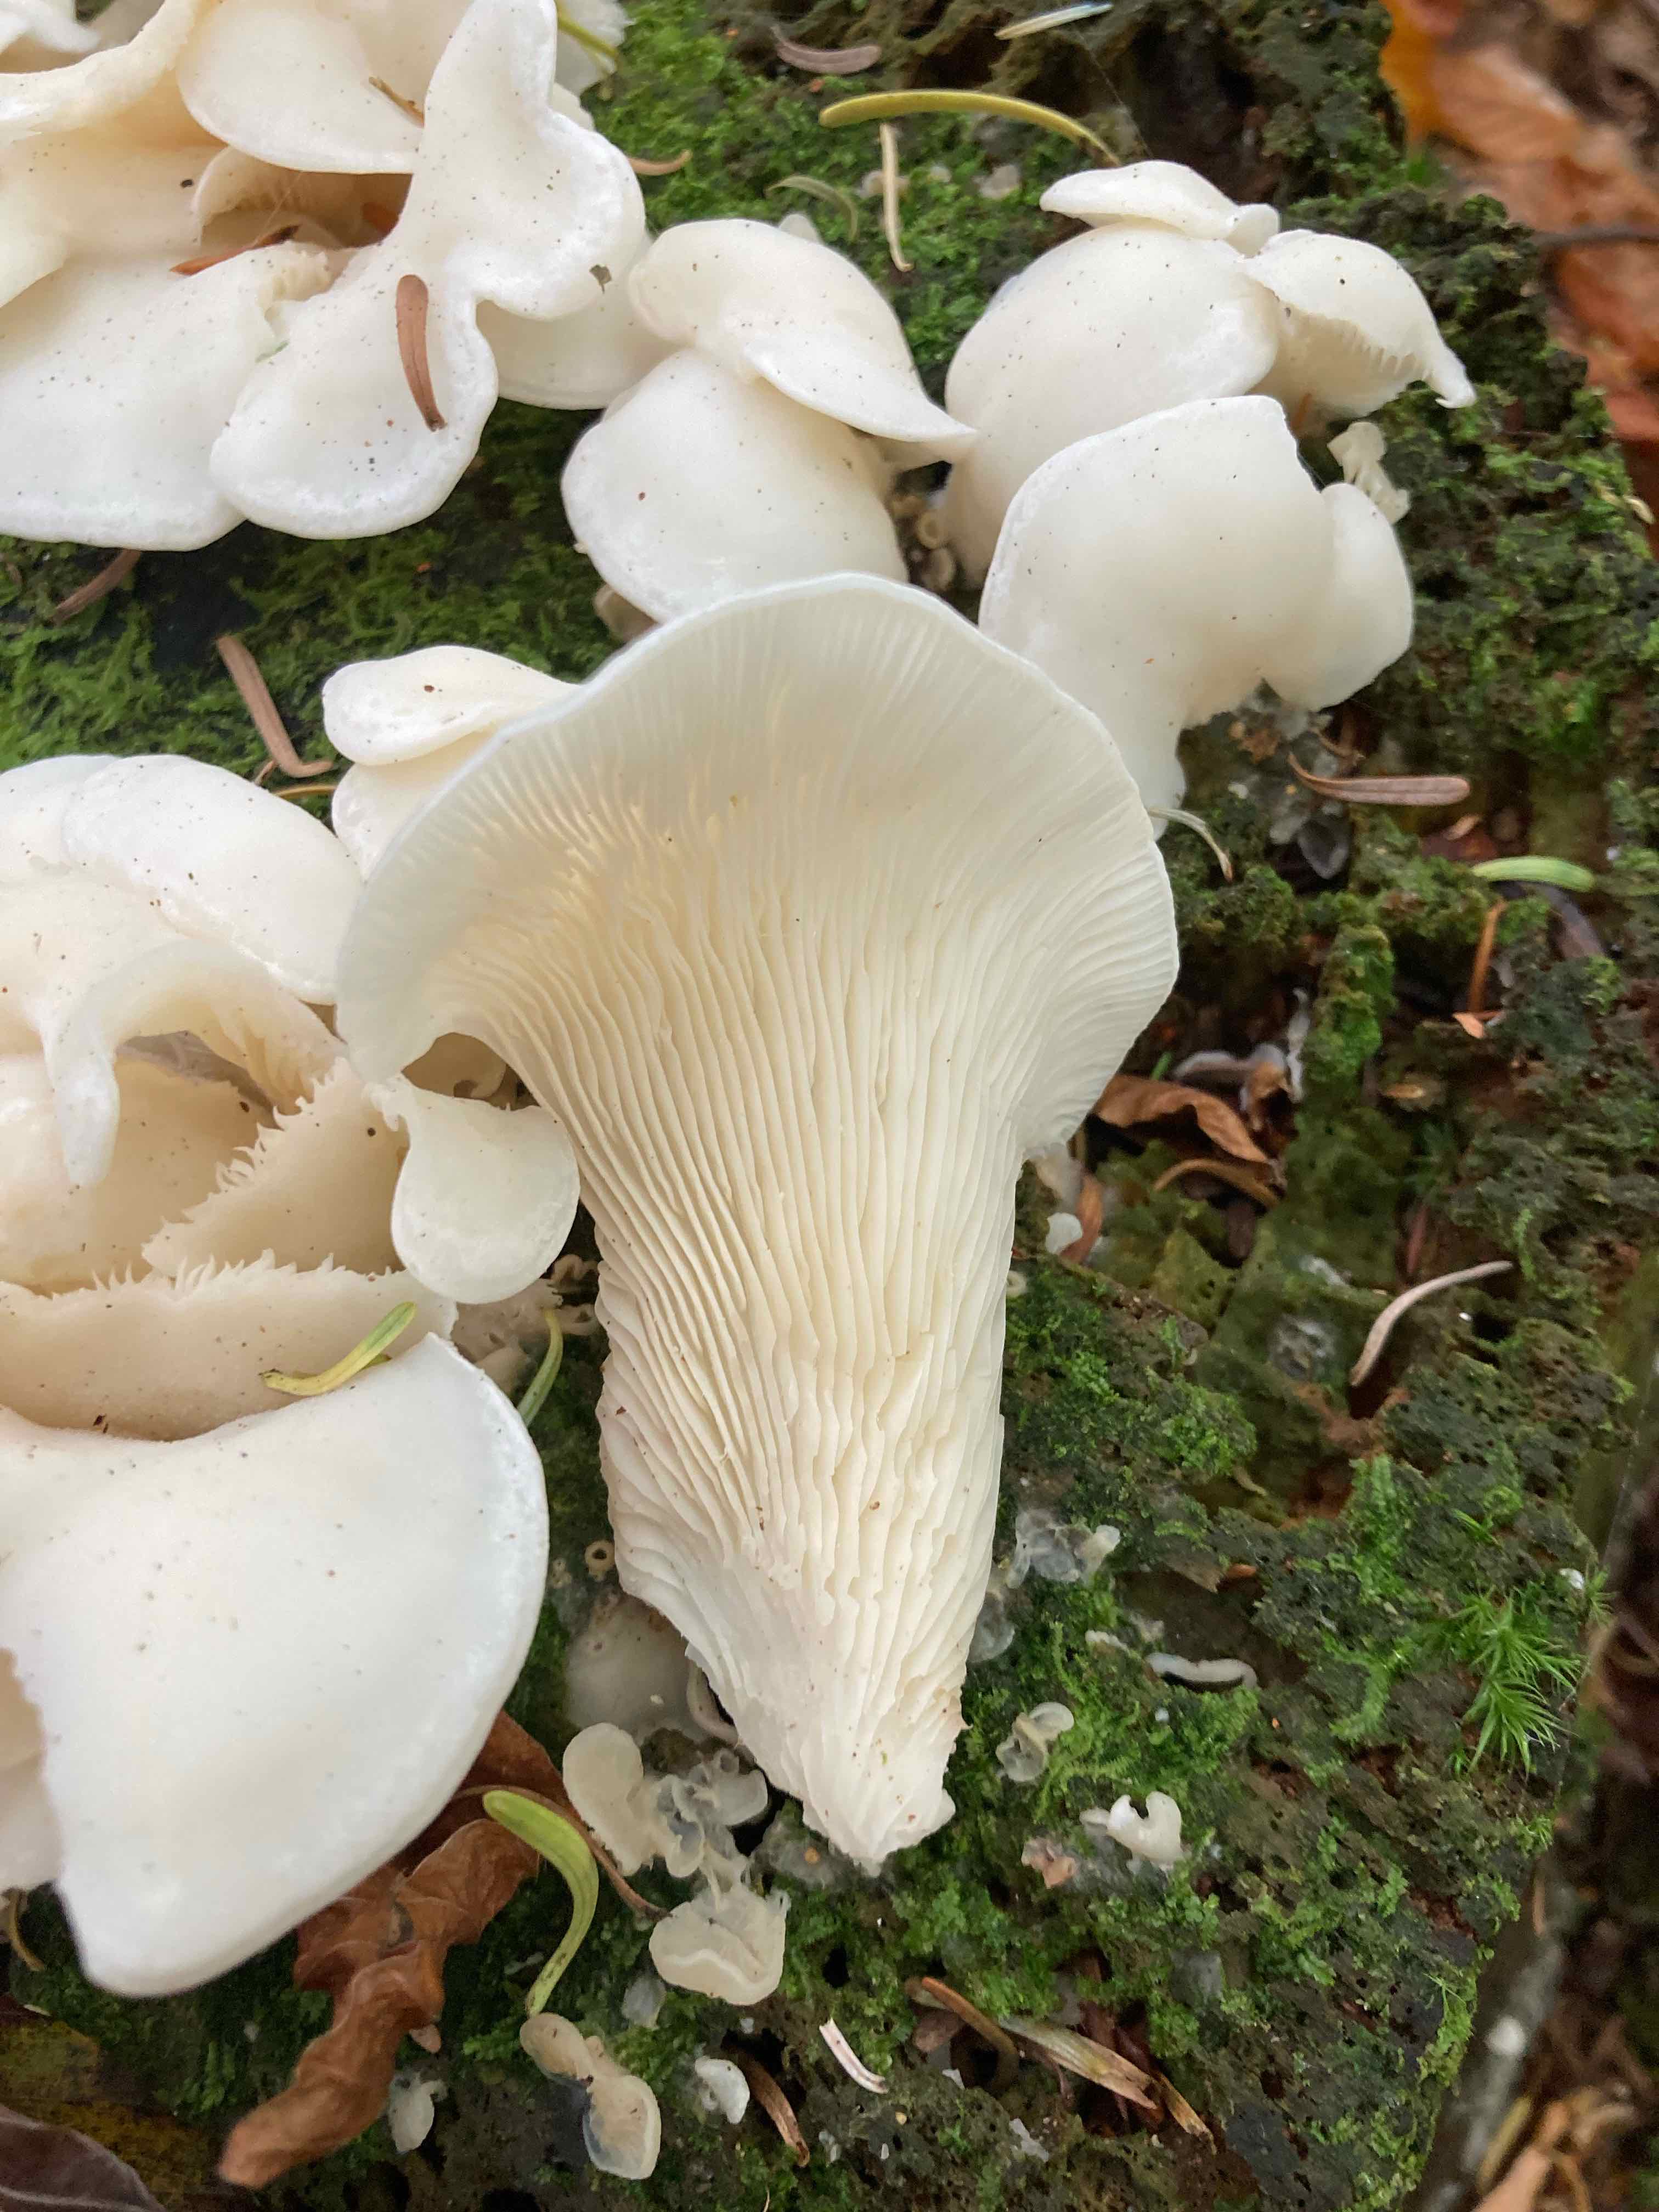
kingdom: Fungi
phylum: Basidiomycota
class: Agaricomycetes
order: Agaricales
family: Marasmiaceae
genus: Pleurocybella
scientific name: Pleurocybella porrigens
